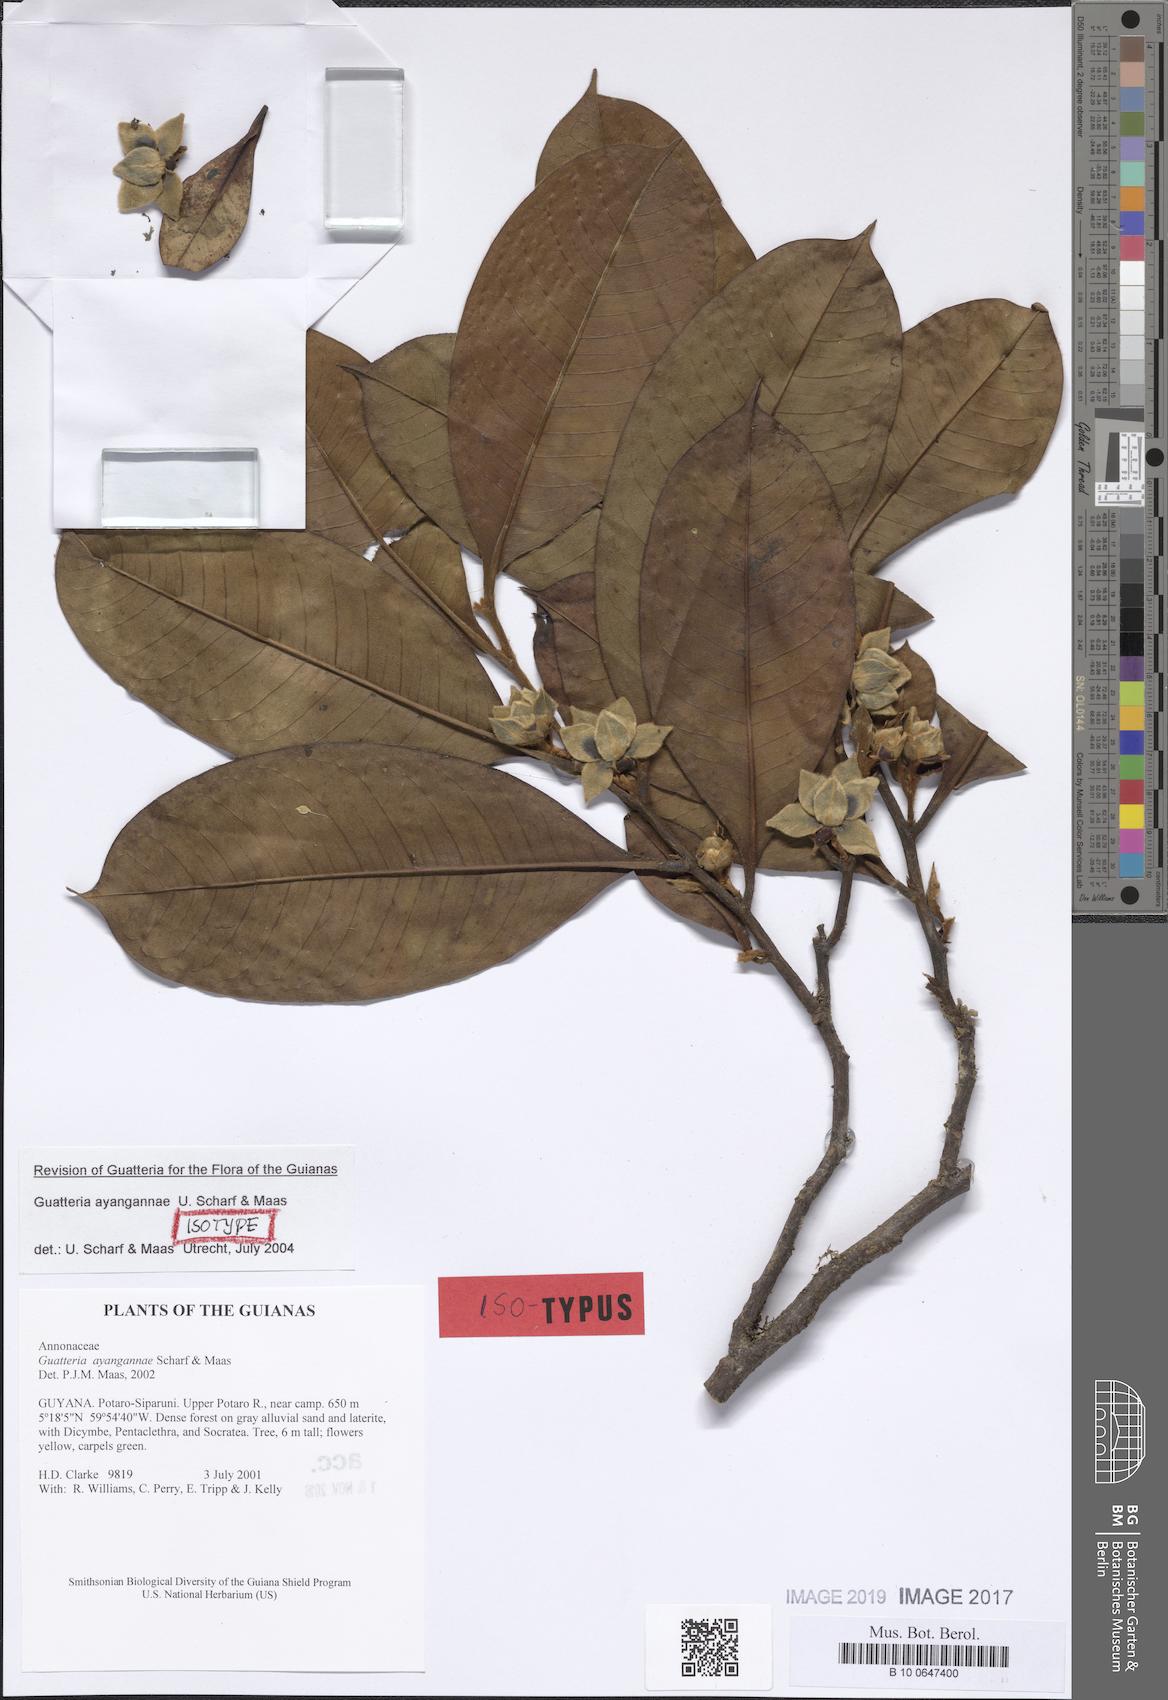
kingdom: Plantae
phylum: Tracheophyta
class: Magnoliopsida
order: Magnoliales
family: Annonaceae
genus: Guatteria
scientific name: Guatteria ayangannae
